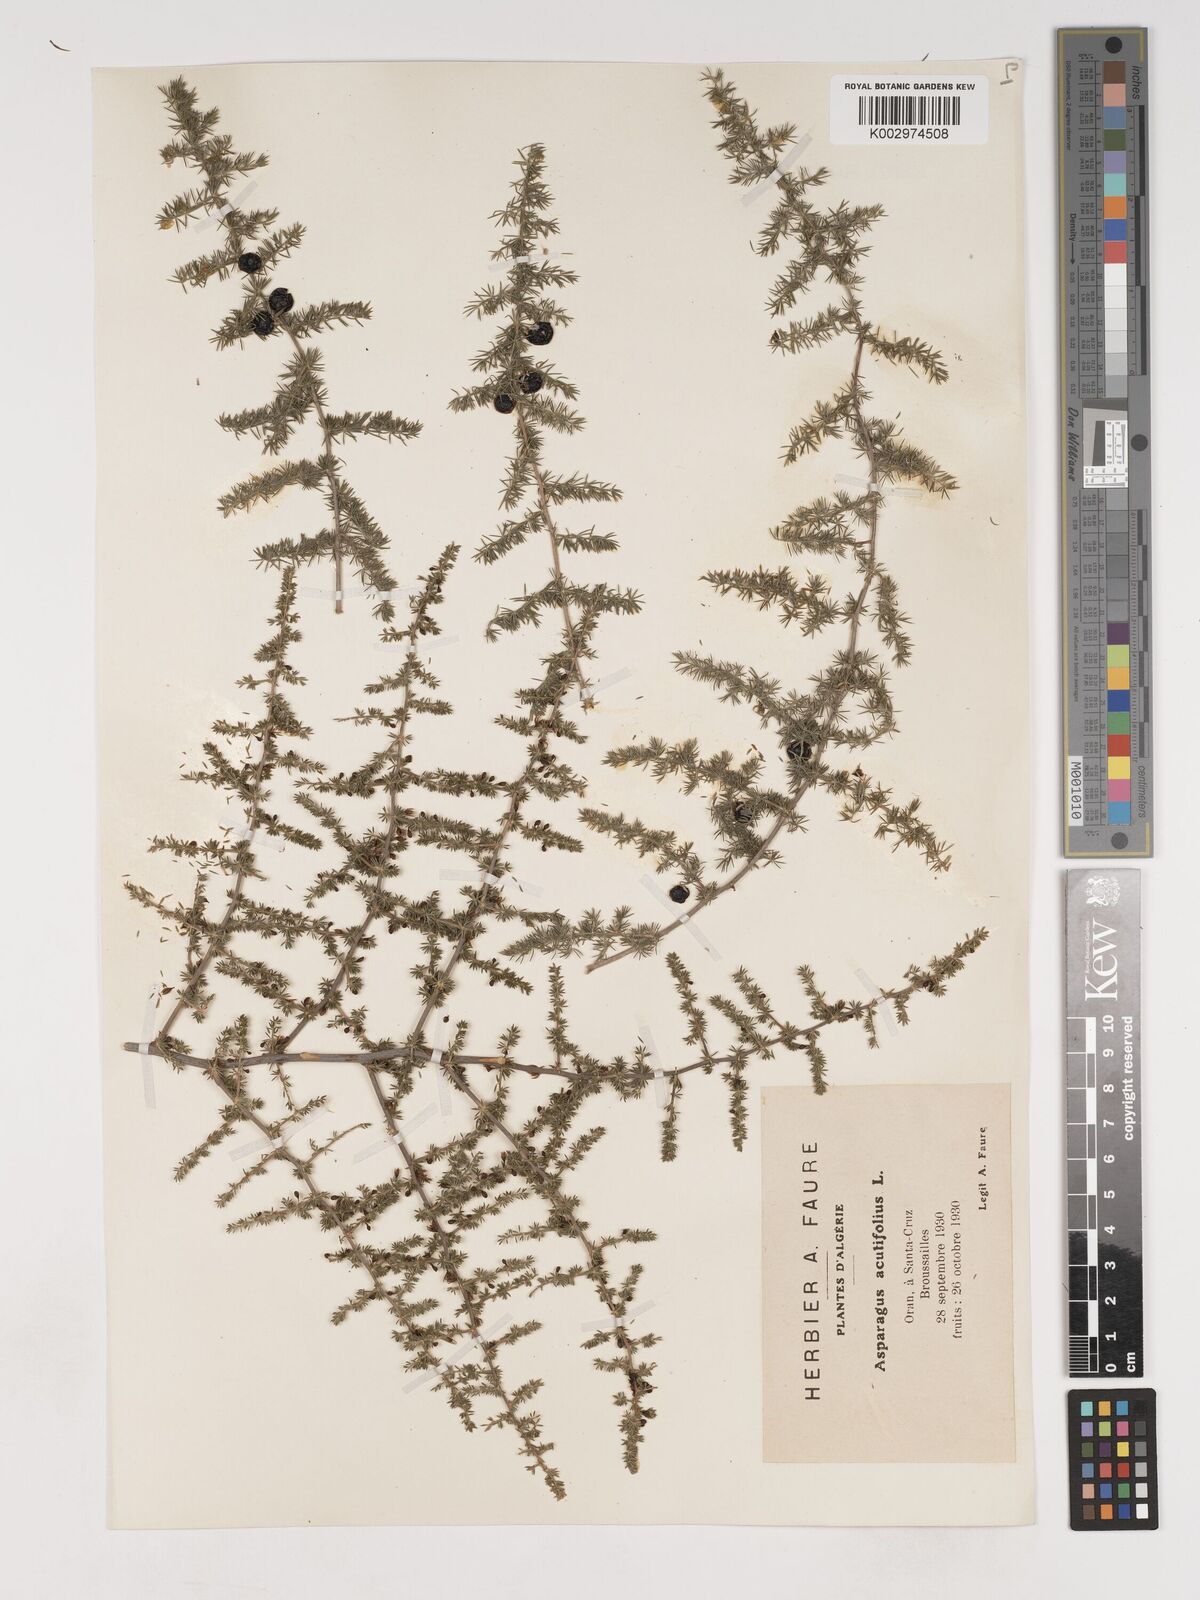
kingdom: Plantae
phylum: Tracheophyta
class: Liliopsida
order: Asparagales
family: Asparagaceae
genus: Asparagus
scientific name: Asparagus acutifolius
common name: Wild asparagus
